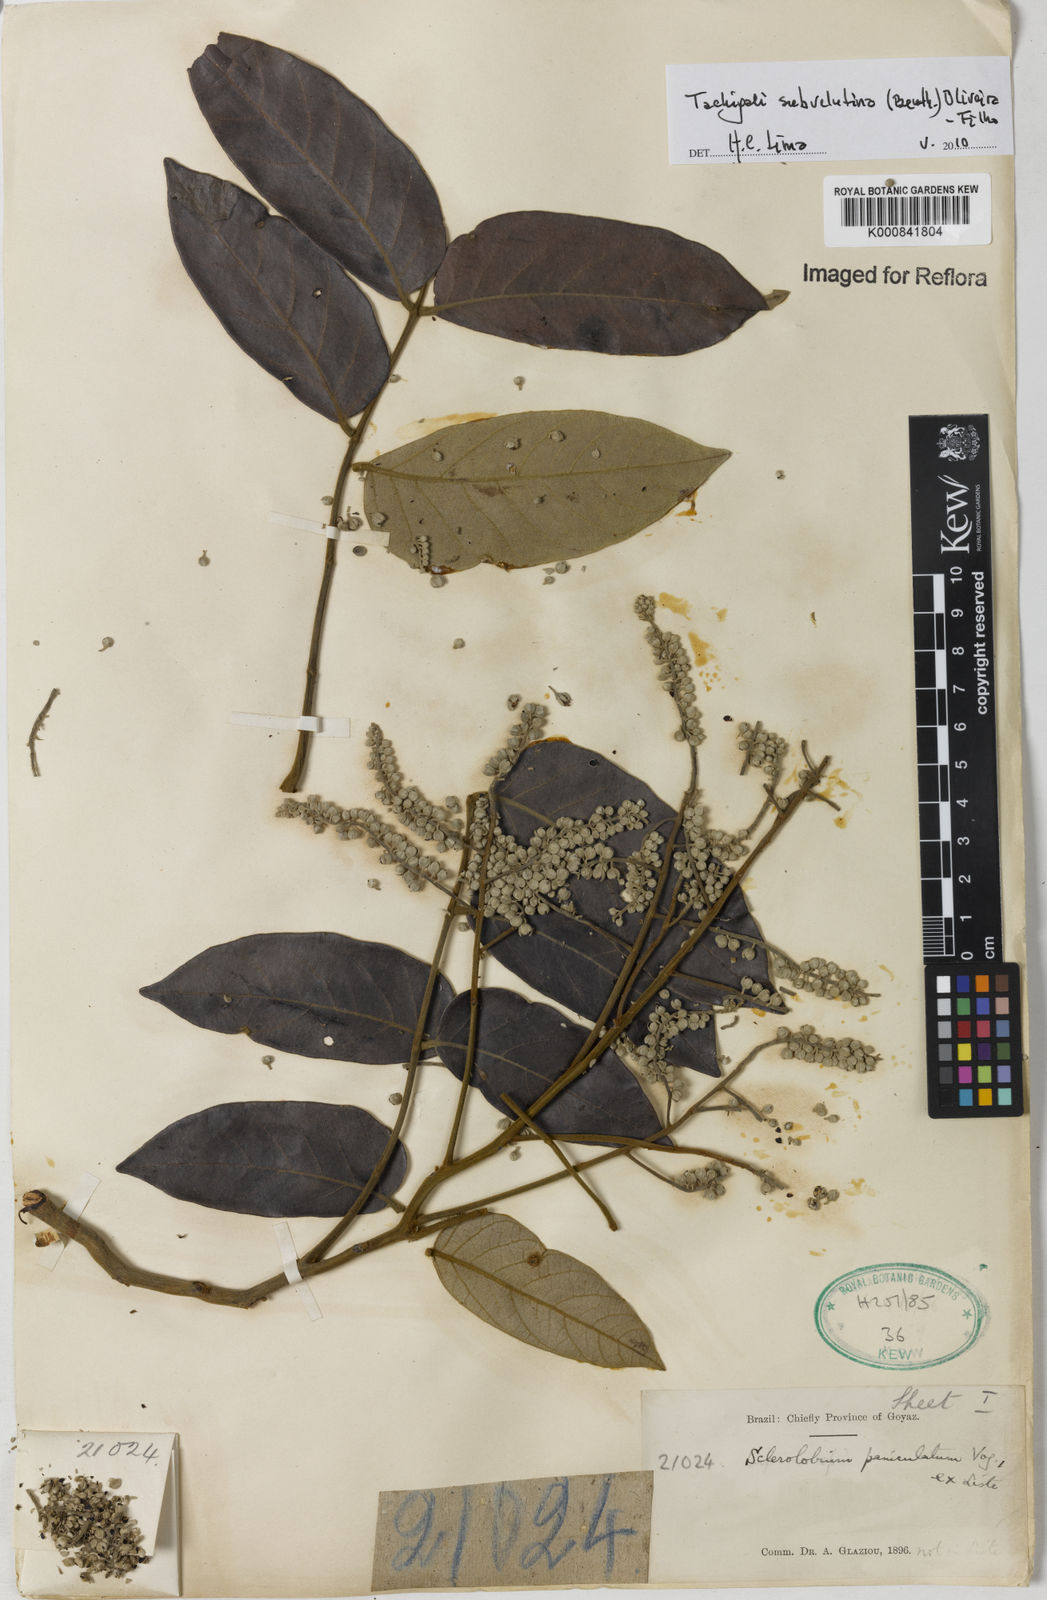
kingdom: Plantae
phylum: Tracheophyta
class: Magnoliopsida
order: Fabales
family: Fabaceae
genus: Tachigali
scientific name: Tachigali subvelutina
